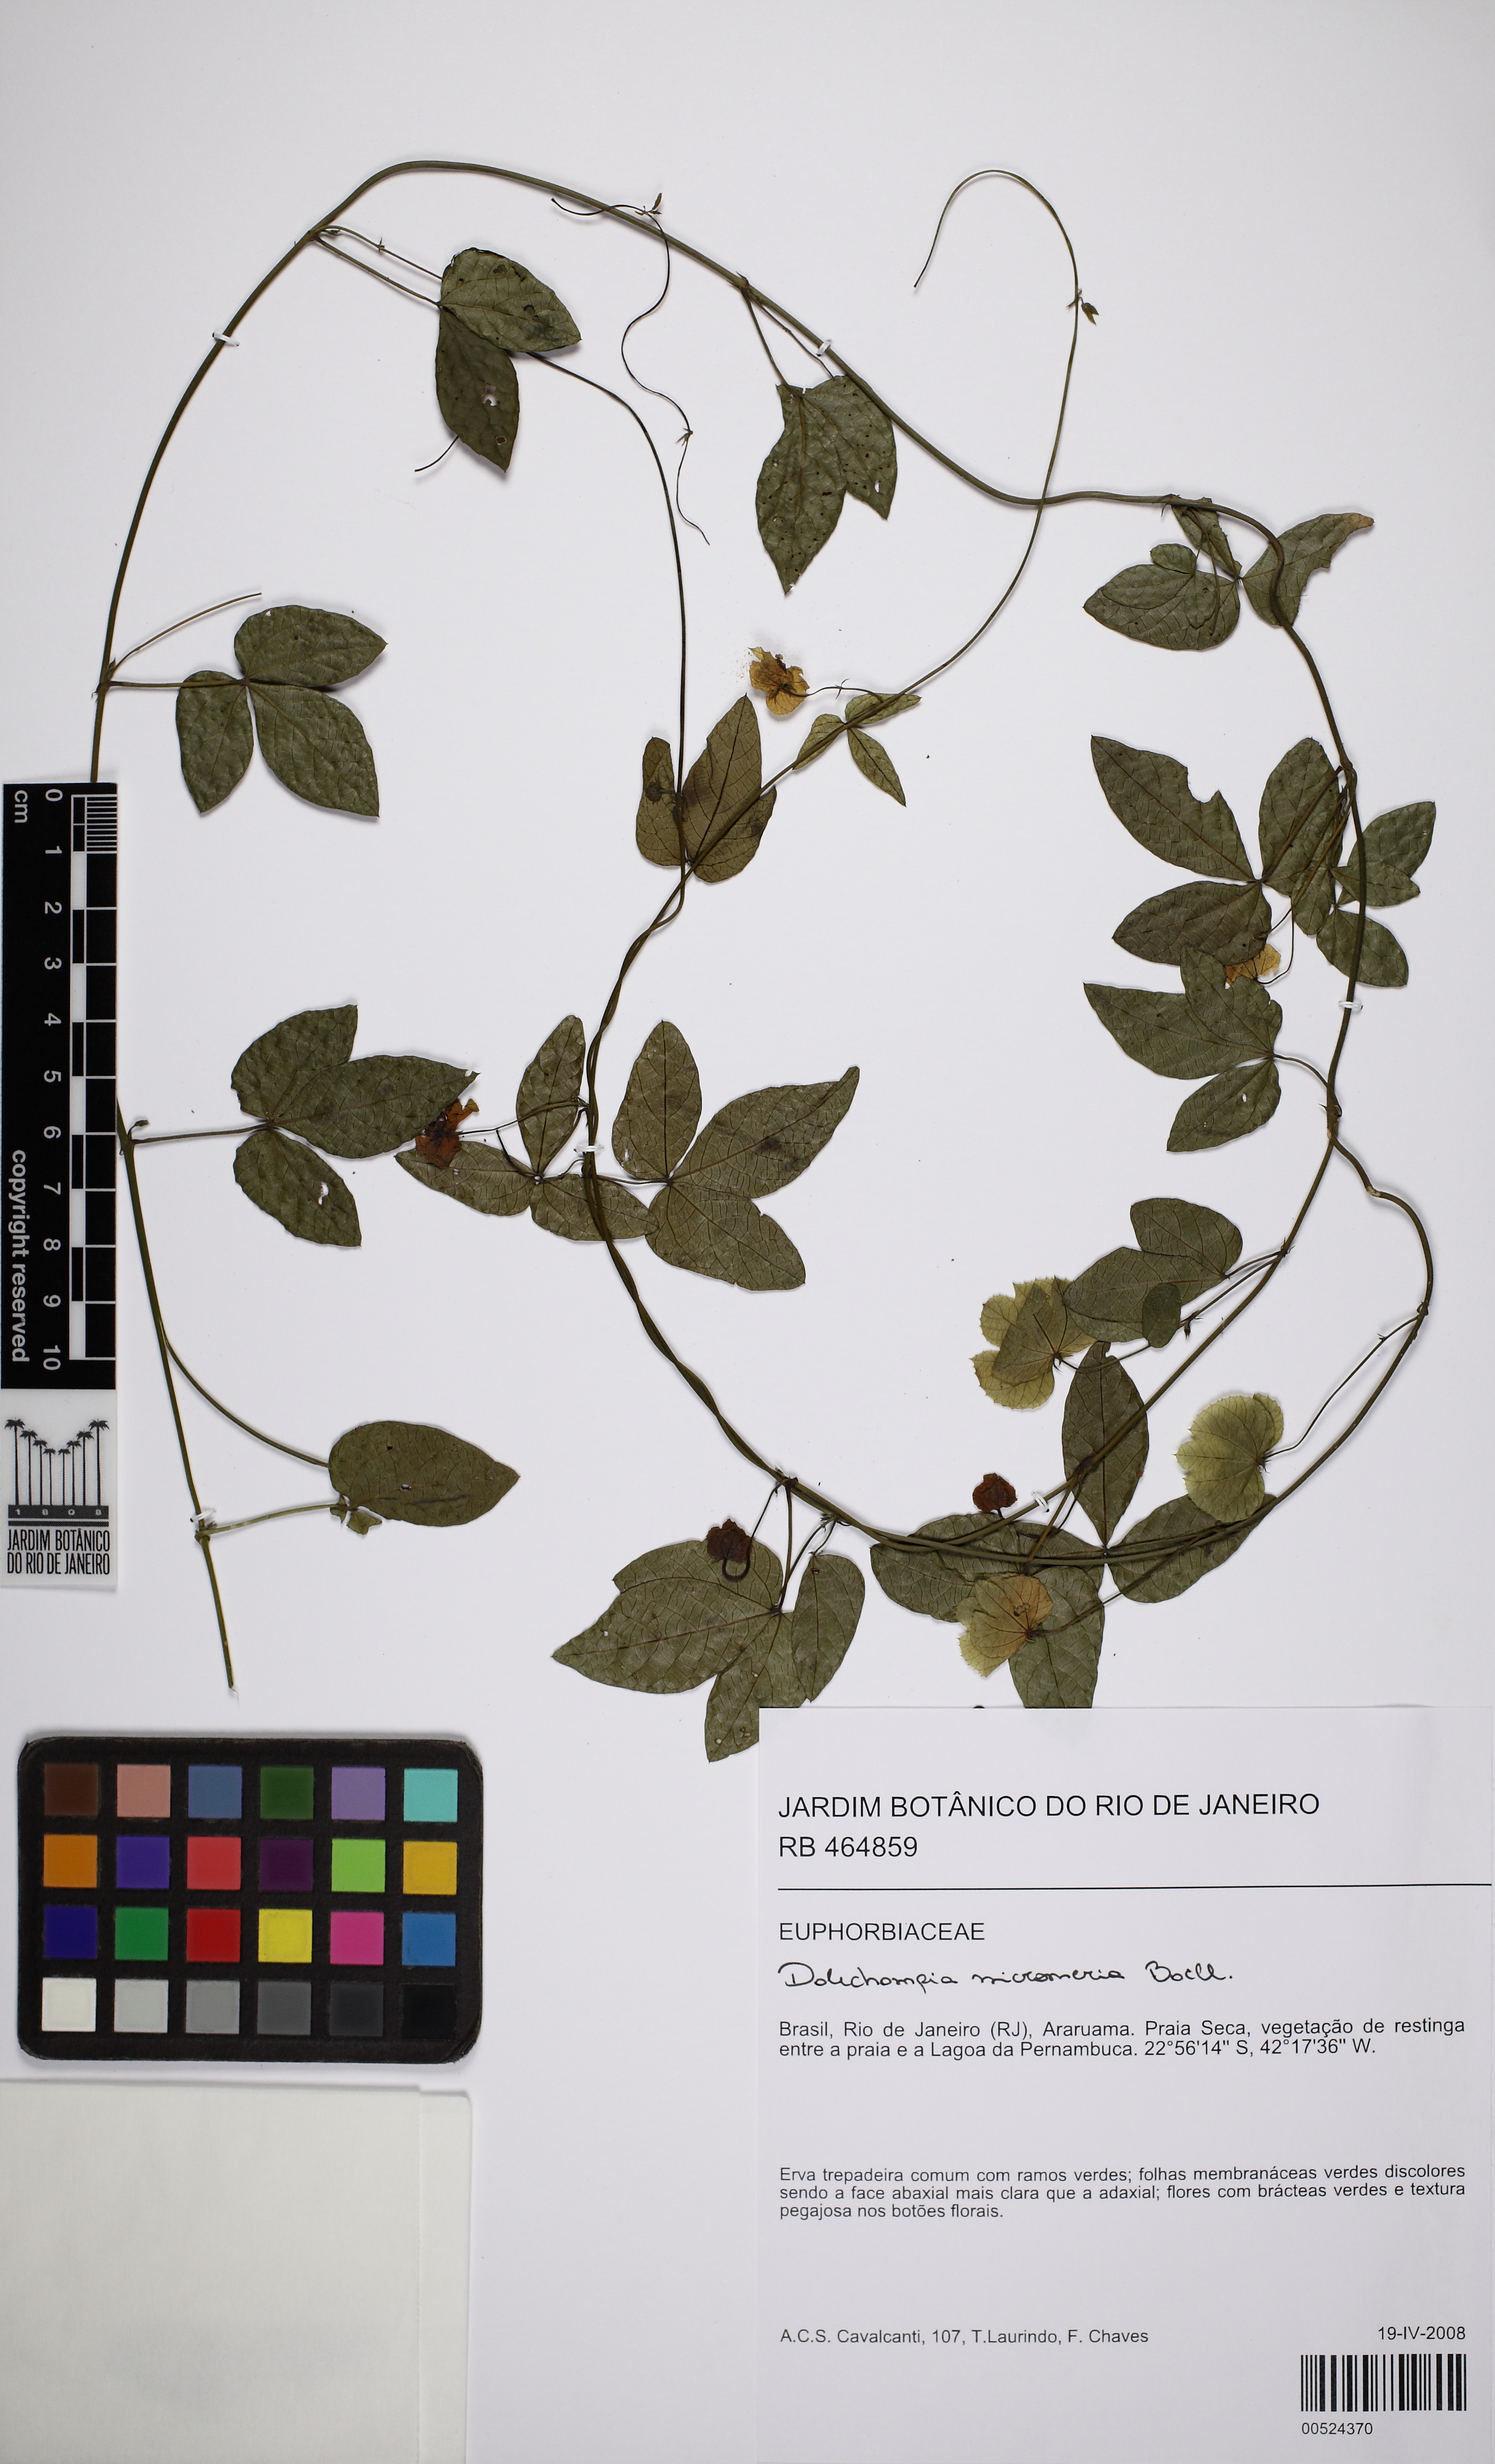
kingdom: Plantae
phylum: Tracheophyta
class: Magnoliopsida
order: Malpighiales
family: Euphorbiaceae
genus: Dalechampia
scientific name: Dalechampia micromeria
